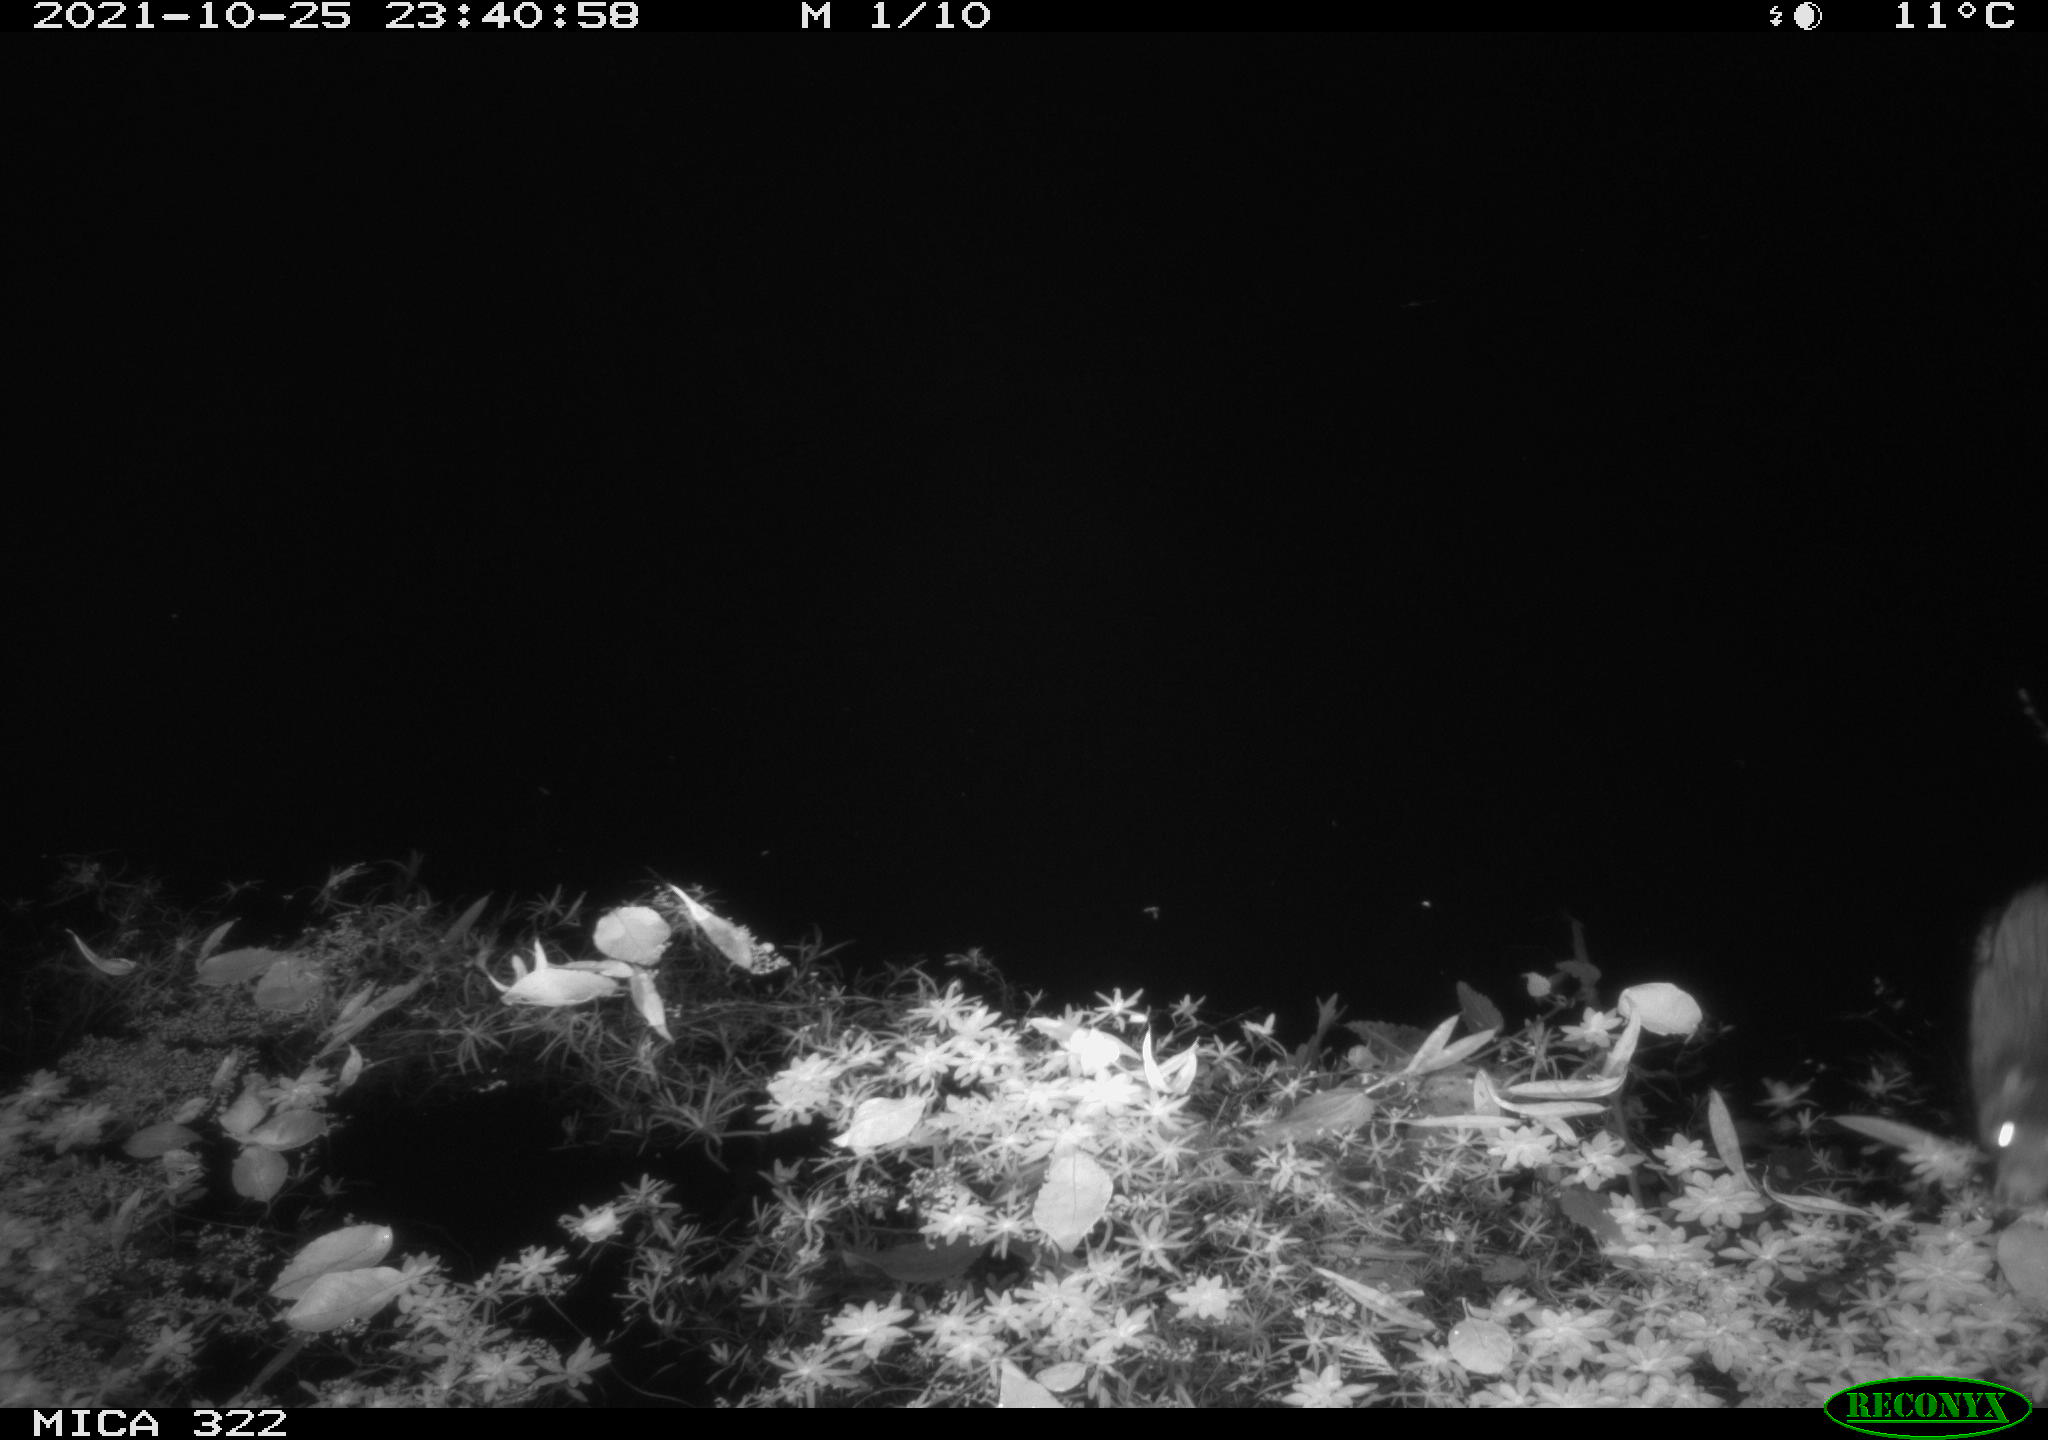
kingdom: Animalia
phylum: Chordata
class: Mammalia
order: Rodentia
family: Muridae
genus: Rattus
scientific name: Rattus norvegicus
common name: Brown rat
